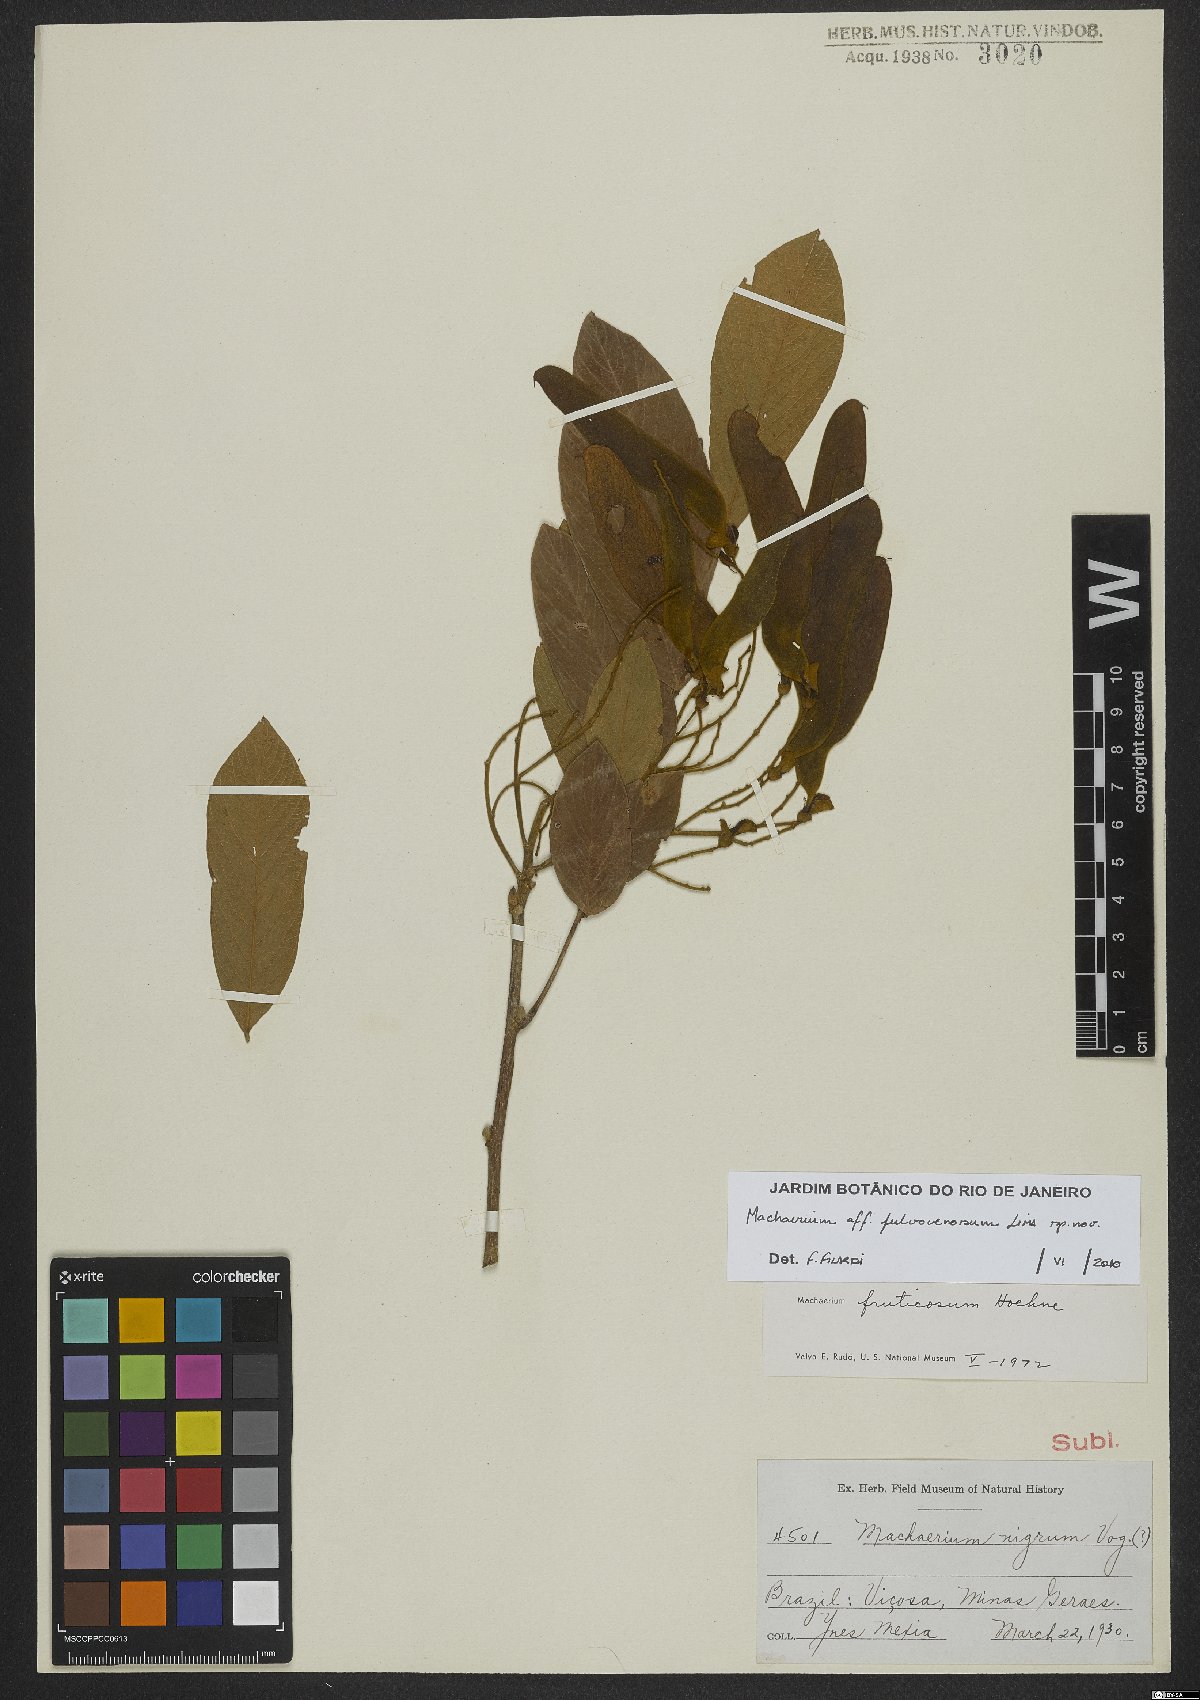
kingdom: Plantae
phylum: Tracheophyta
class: Magnoliopsida
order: Fabales
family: Fabaceae
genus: Machaerium
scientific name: Machaerium fulvovenosum
